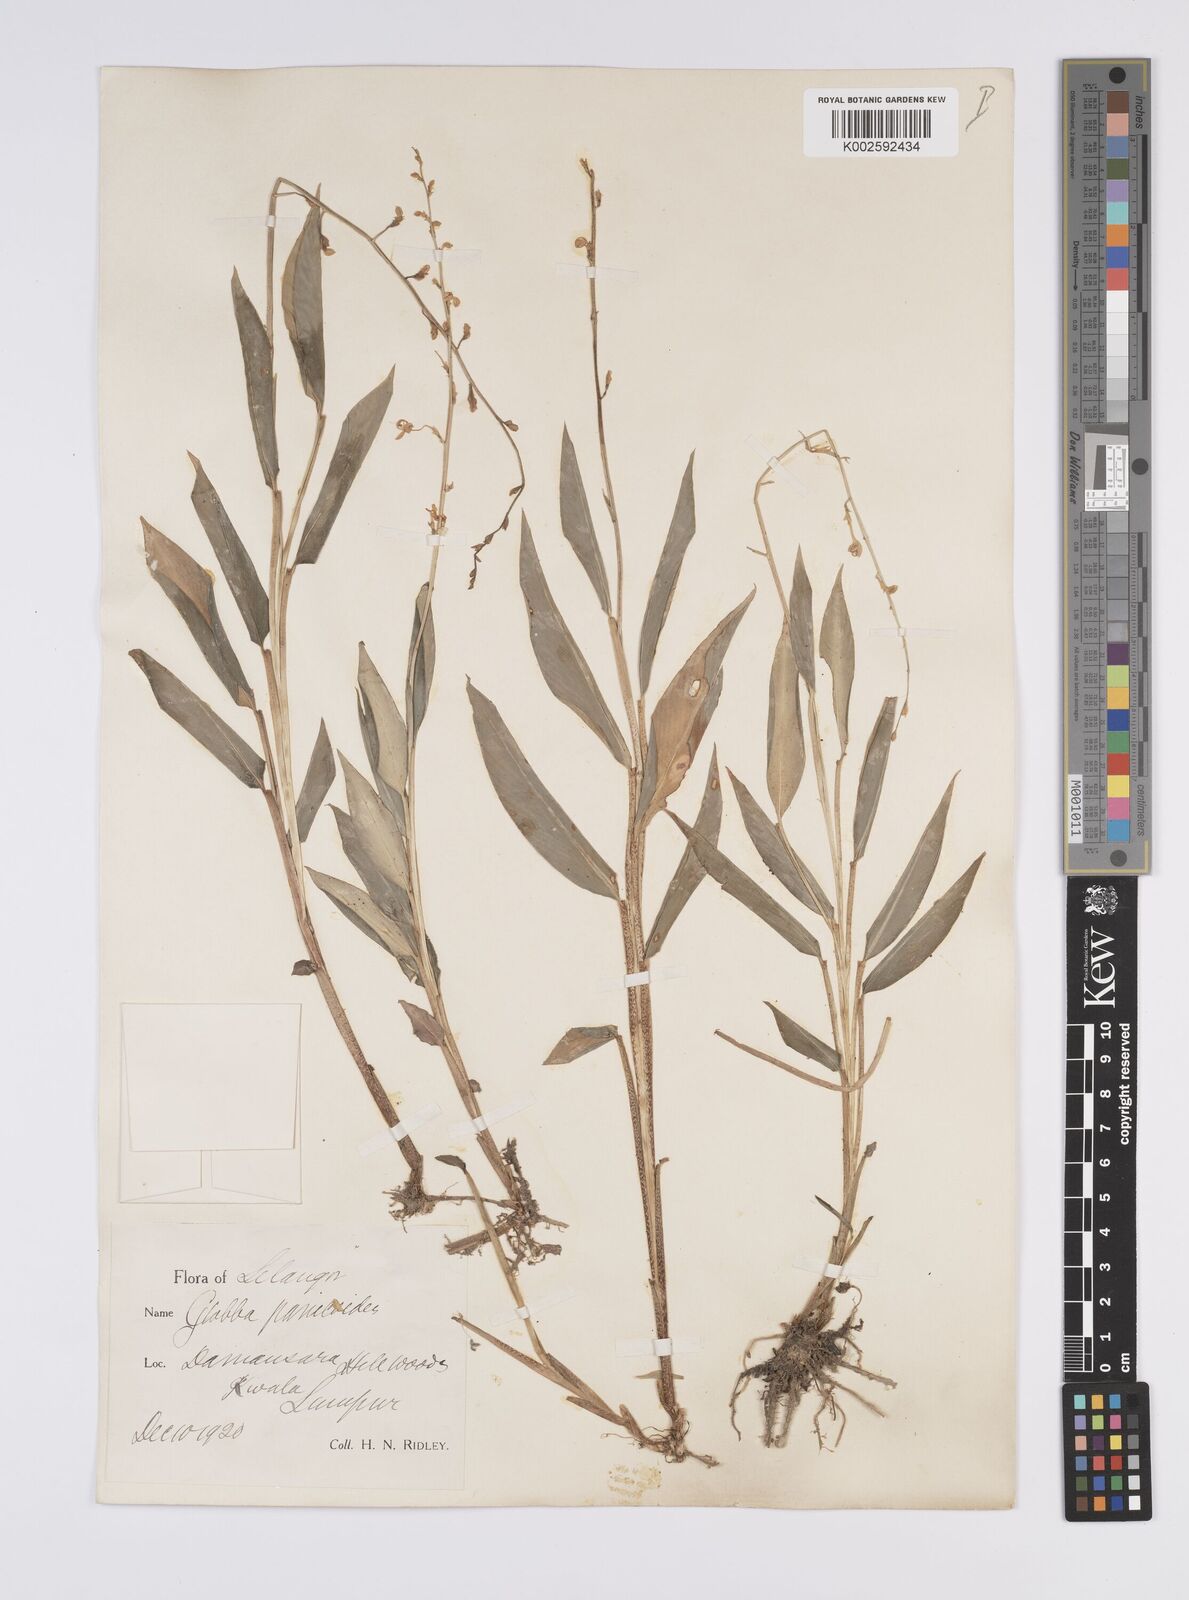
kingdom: Plantae
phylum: Tracheophyta
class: Liliopsida
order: Zingiberales
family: Zingiberaceae
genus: Globba
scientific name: Globba pendula
